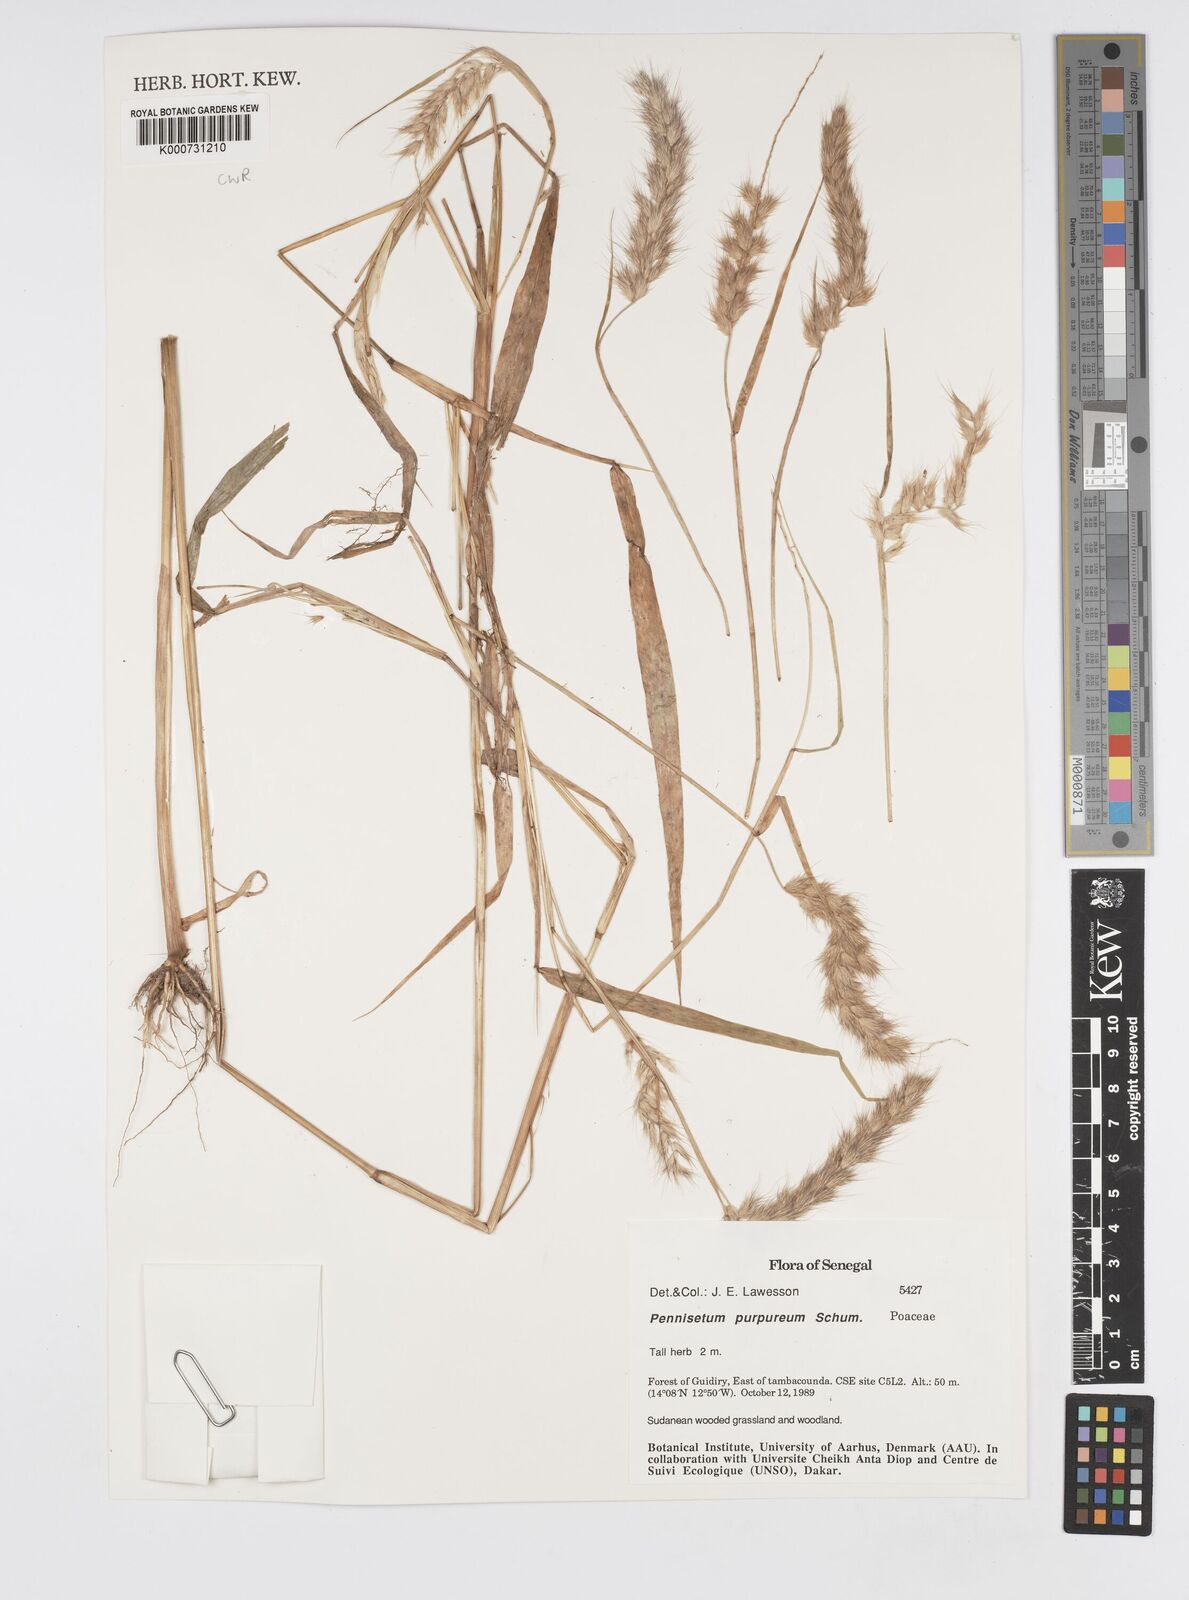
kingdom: Plantae
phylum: Tracheophyta
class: Liliopsida
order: Poales
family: Poaceae
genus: Cenchrus
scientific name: Cenchrus purpureus
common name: Elephant grass
